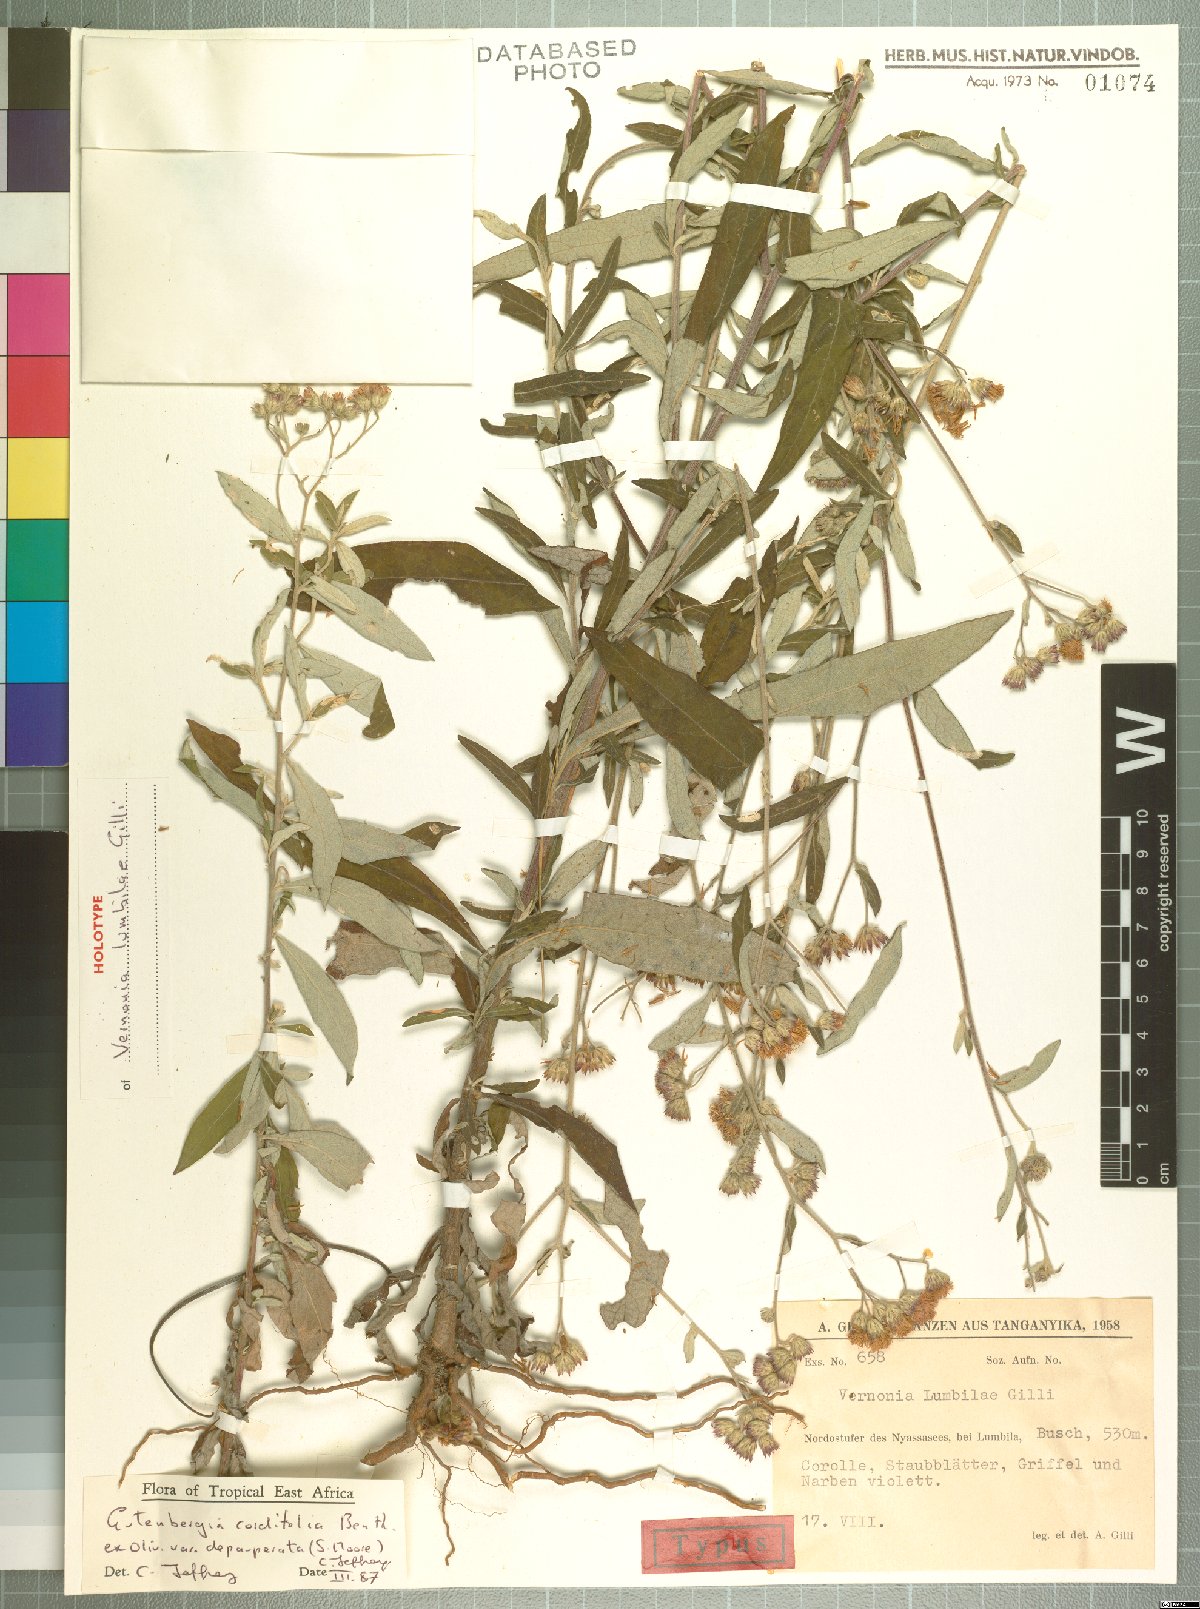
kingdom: Plantae
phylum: Tracheophyta
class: Magnoliopsida
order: Asterales
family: Asteraceae
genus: Gutenbergia
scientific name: Gutenbergia cordifolia
